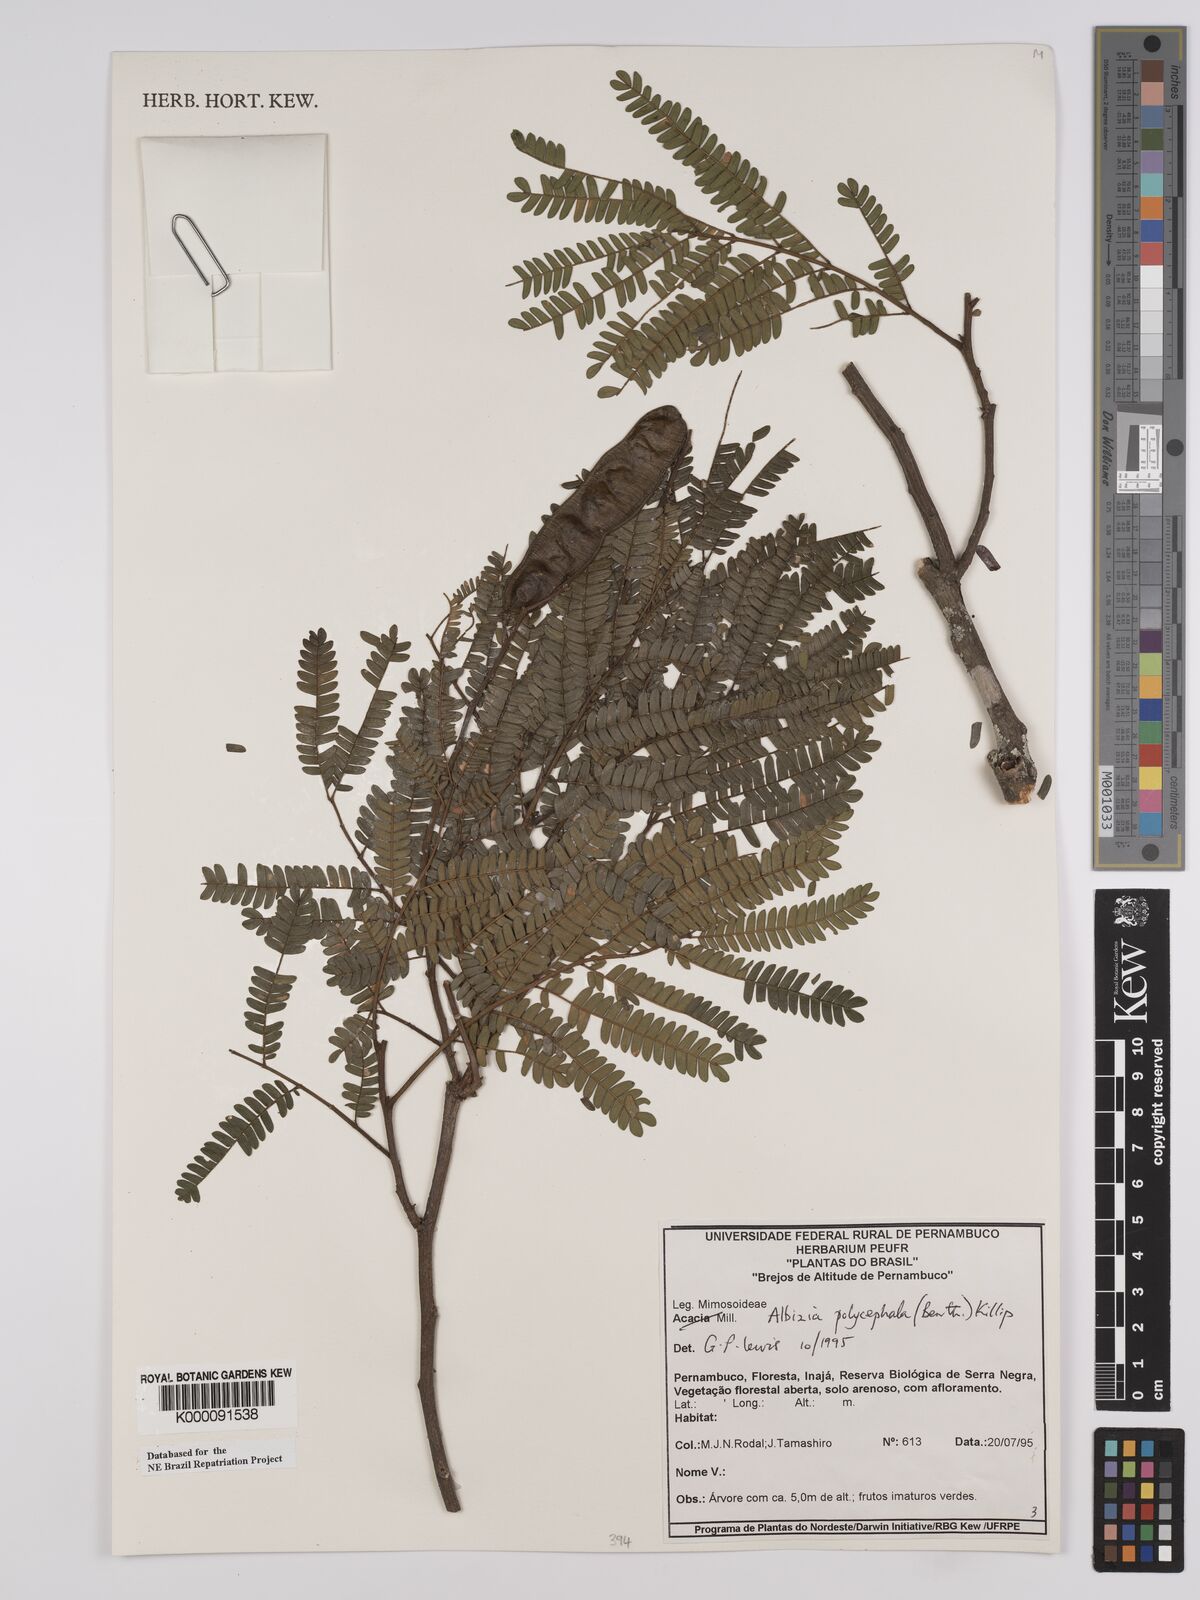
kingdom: Plantae
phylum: Tracheophyta
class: Magnoliopsida
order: Fabales
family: Fabaceae
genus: Albizia
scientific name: Albizia polycephala
